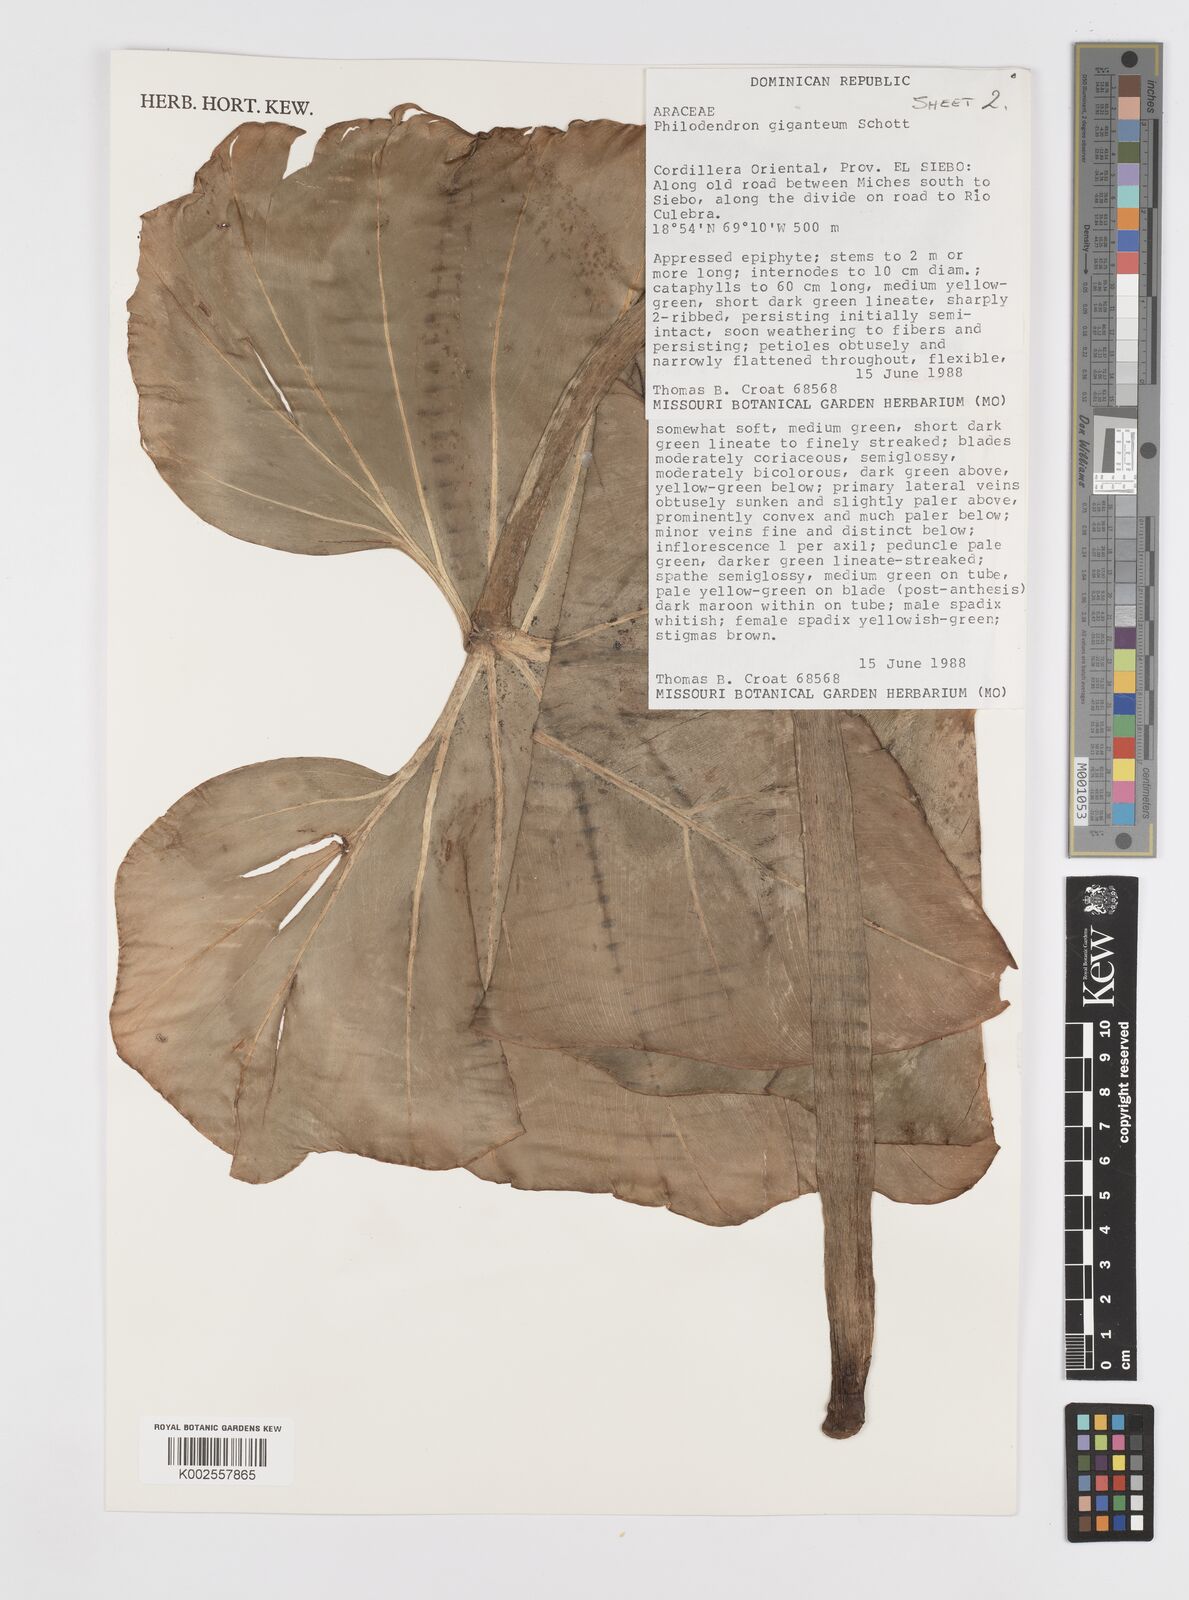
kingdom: Plantae
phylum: Tracheophyta
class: Liliopsida
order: Alismatales
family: Araceae
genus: Philodendron
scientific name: Philodendron
